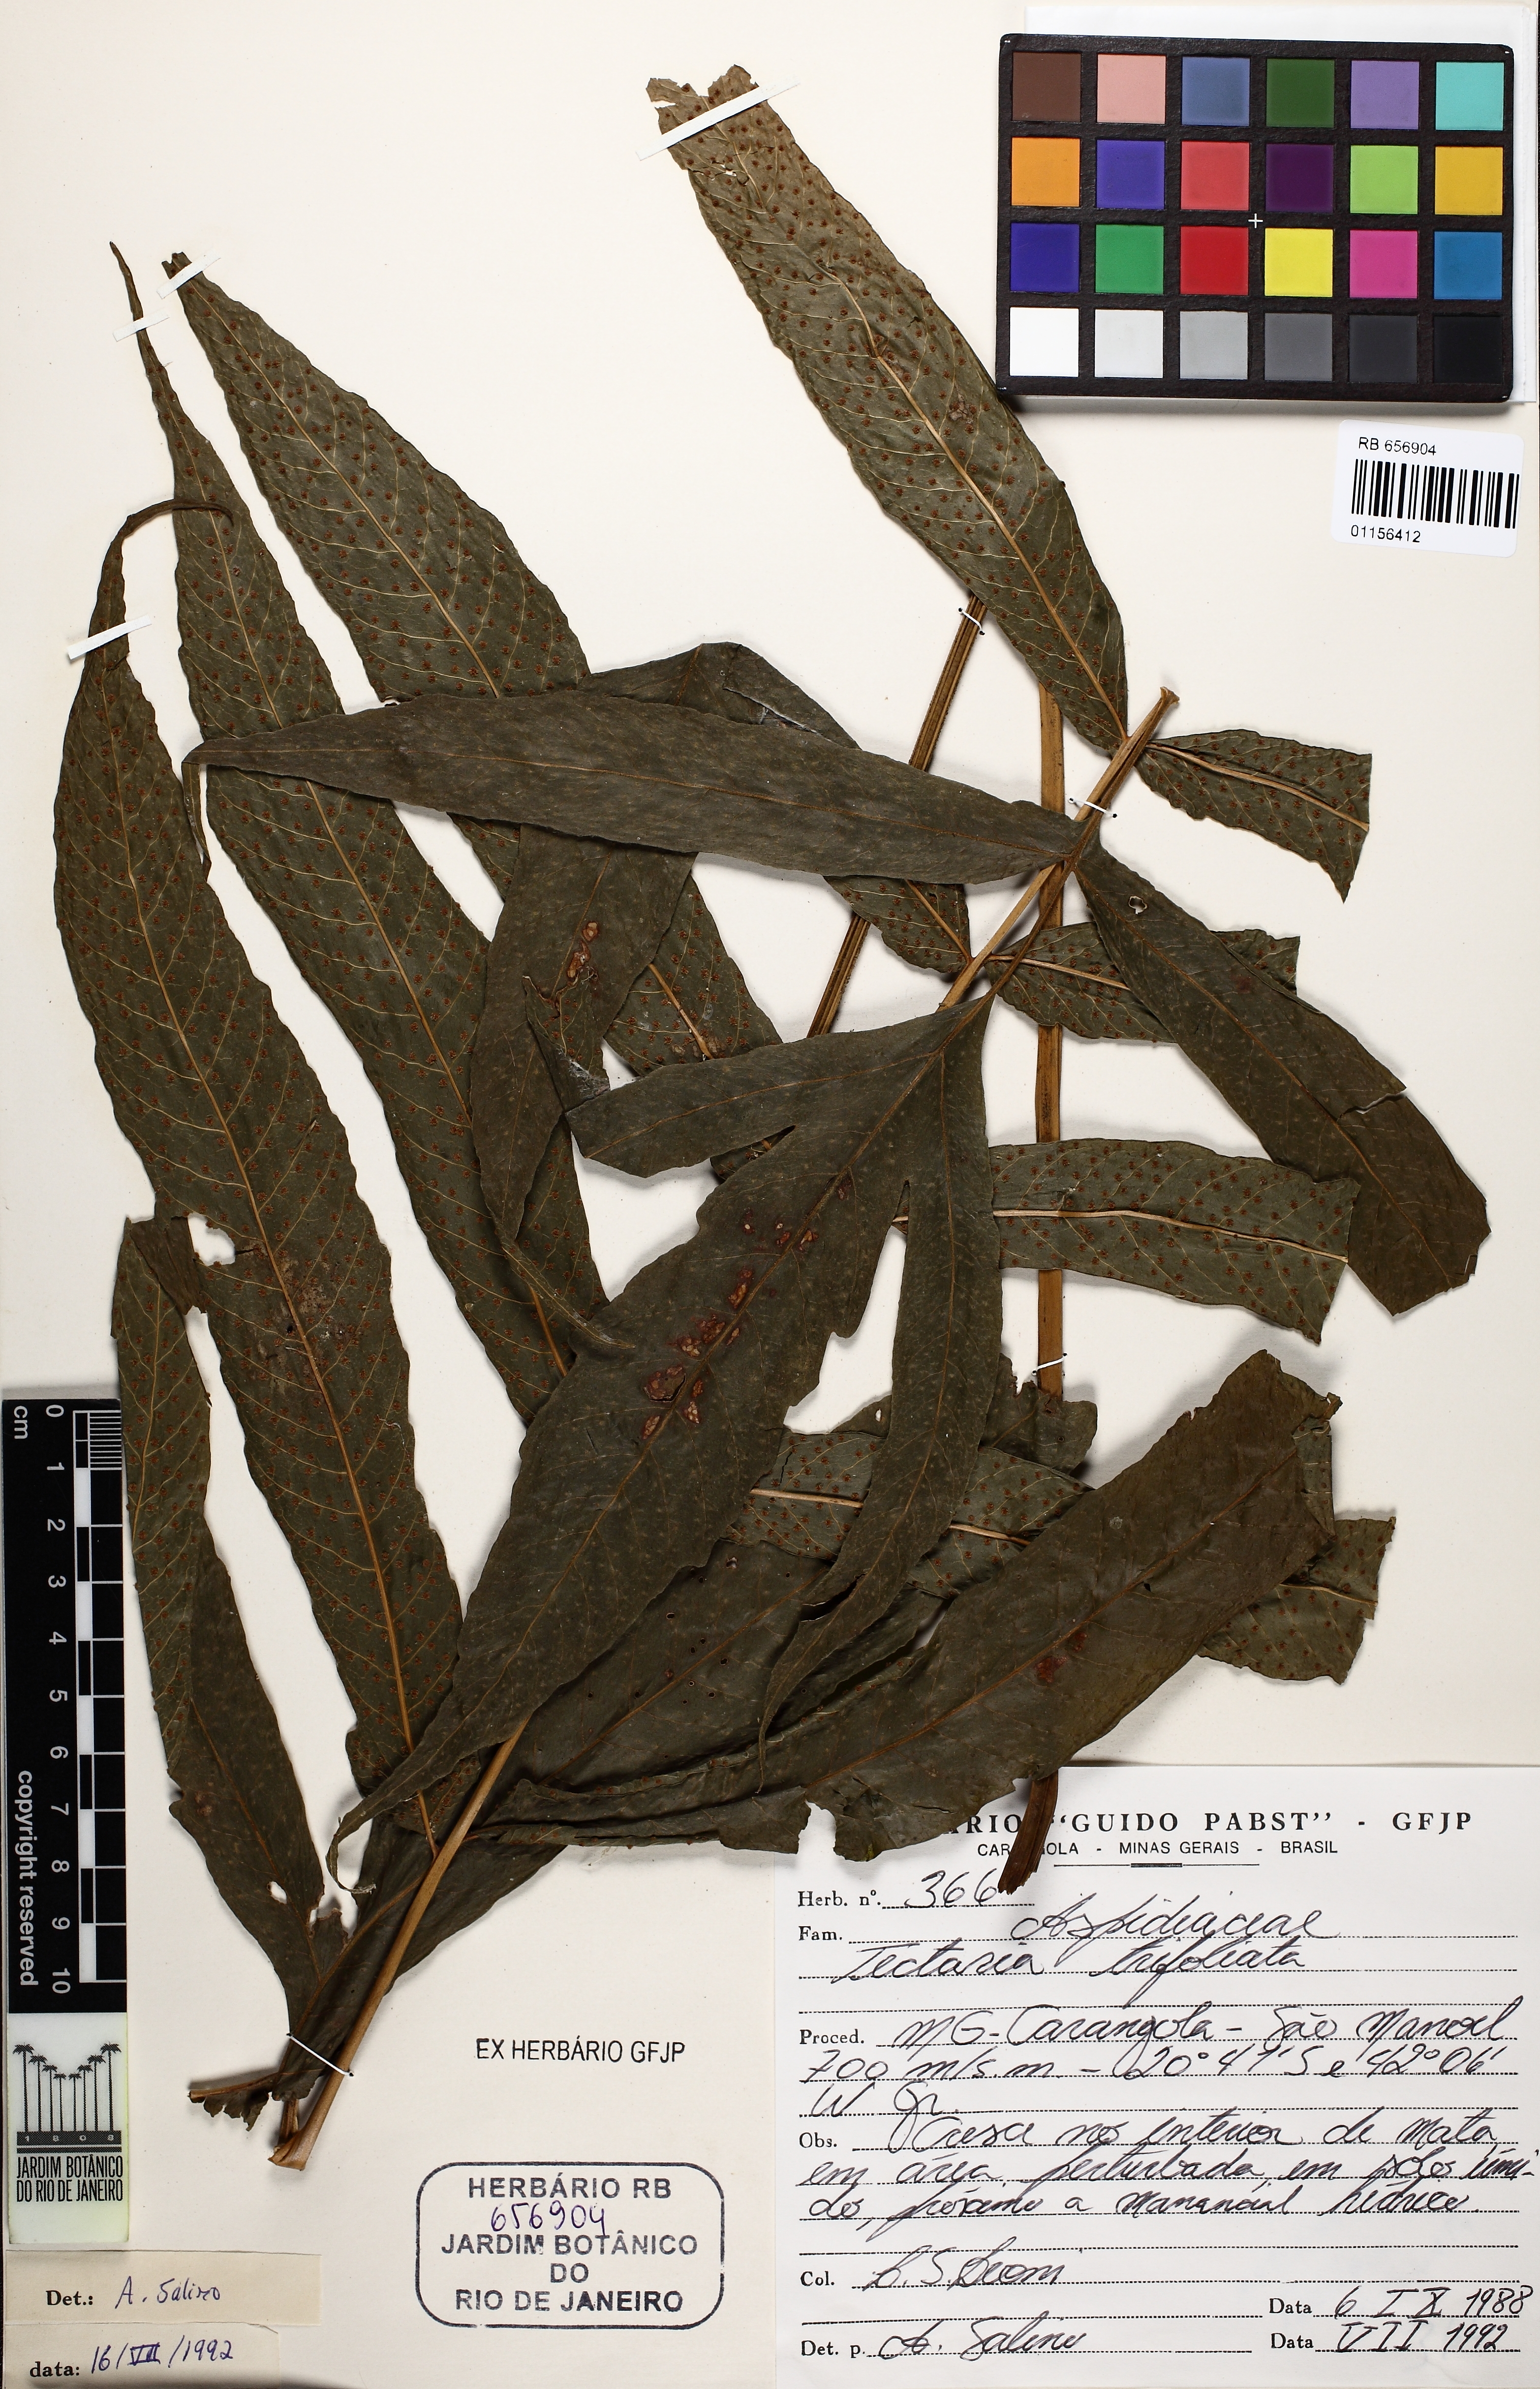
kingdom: Plantae
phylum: Tracheophyta
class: Polypodiopsida
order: Polypodiales
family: Tectariaceae
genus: Tectaria
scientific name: Tectaria trifoliata
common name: Threeleaf halberd fern
